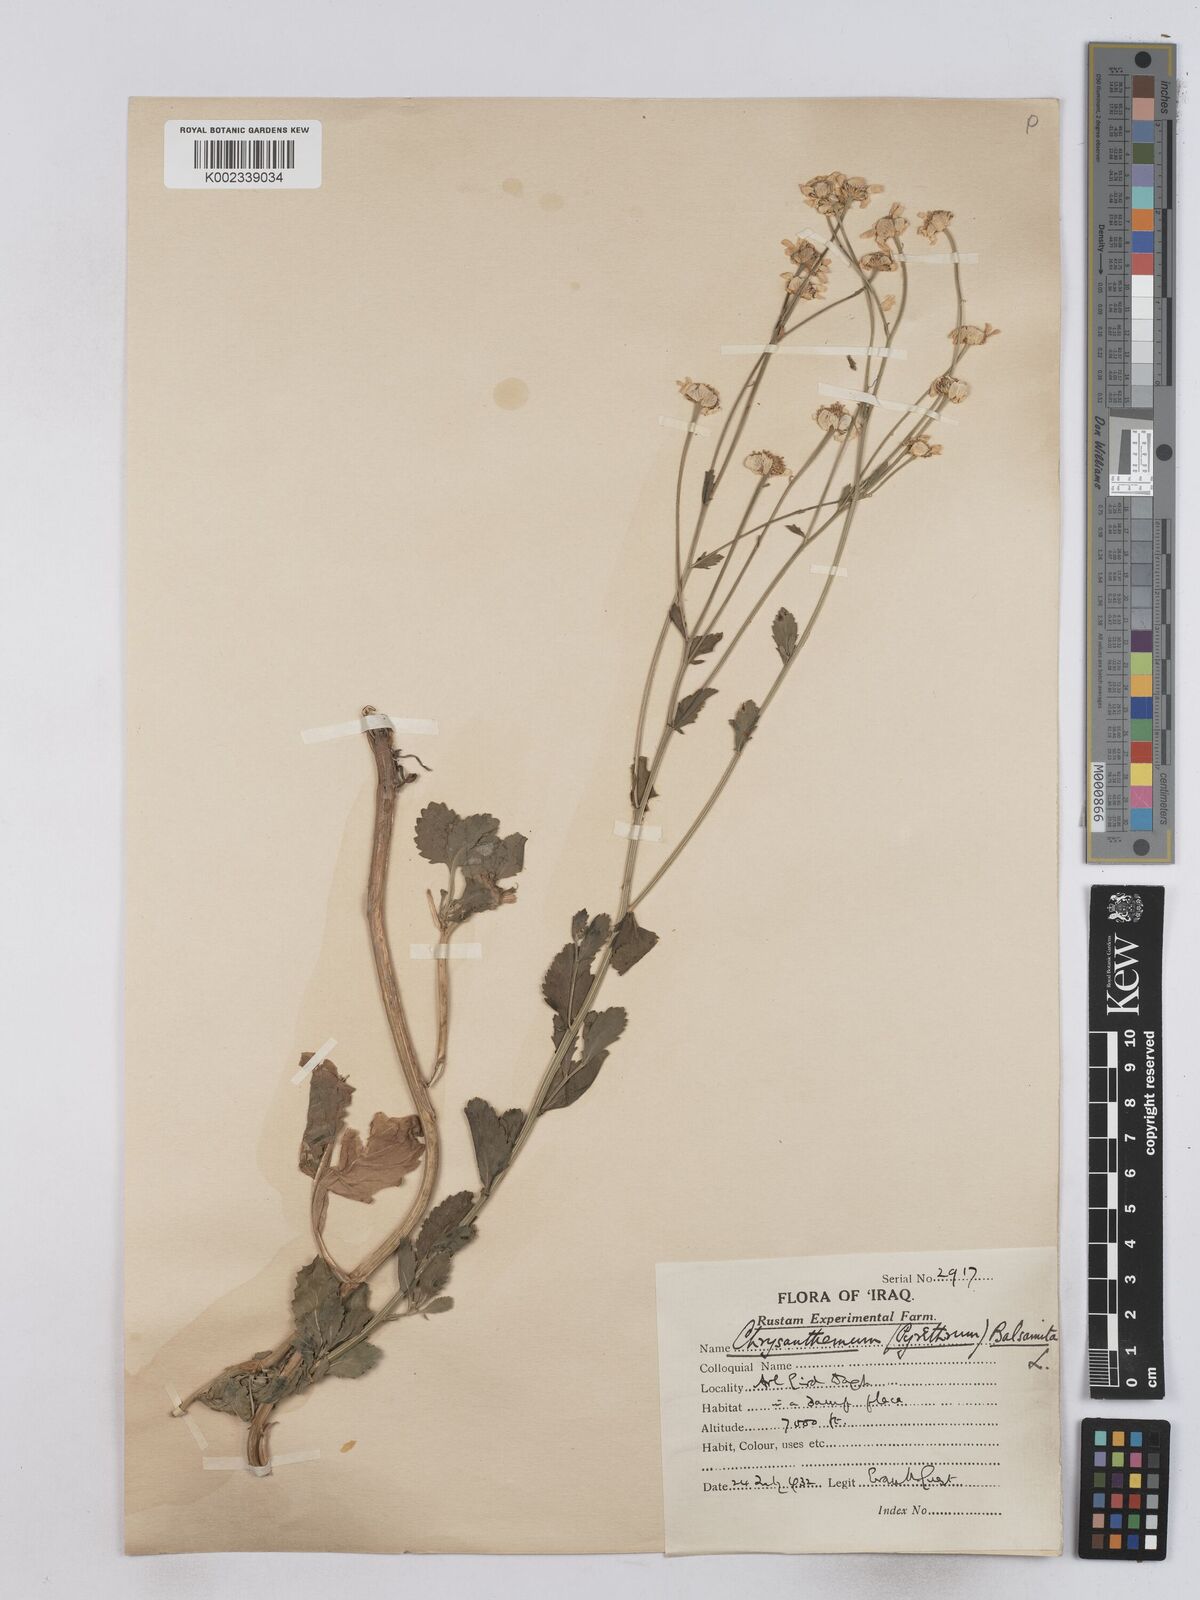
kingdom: Plantae
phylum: Tracheophyta
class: Magnoliopsida
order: Asterales
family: Asteraceae
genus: Tanacetum
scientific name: Tanacetum balsamitoides
